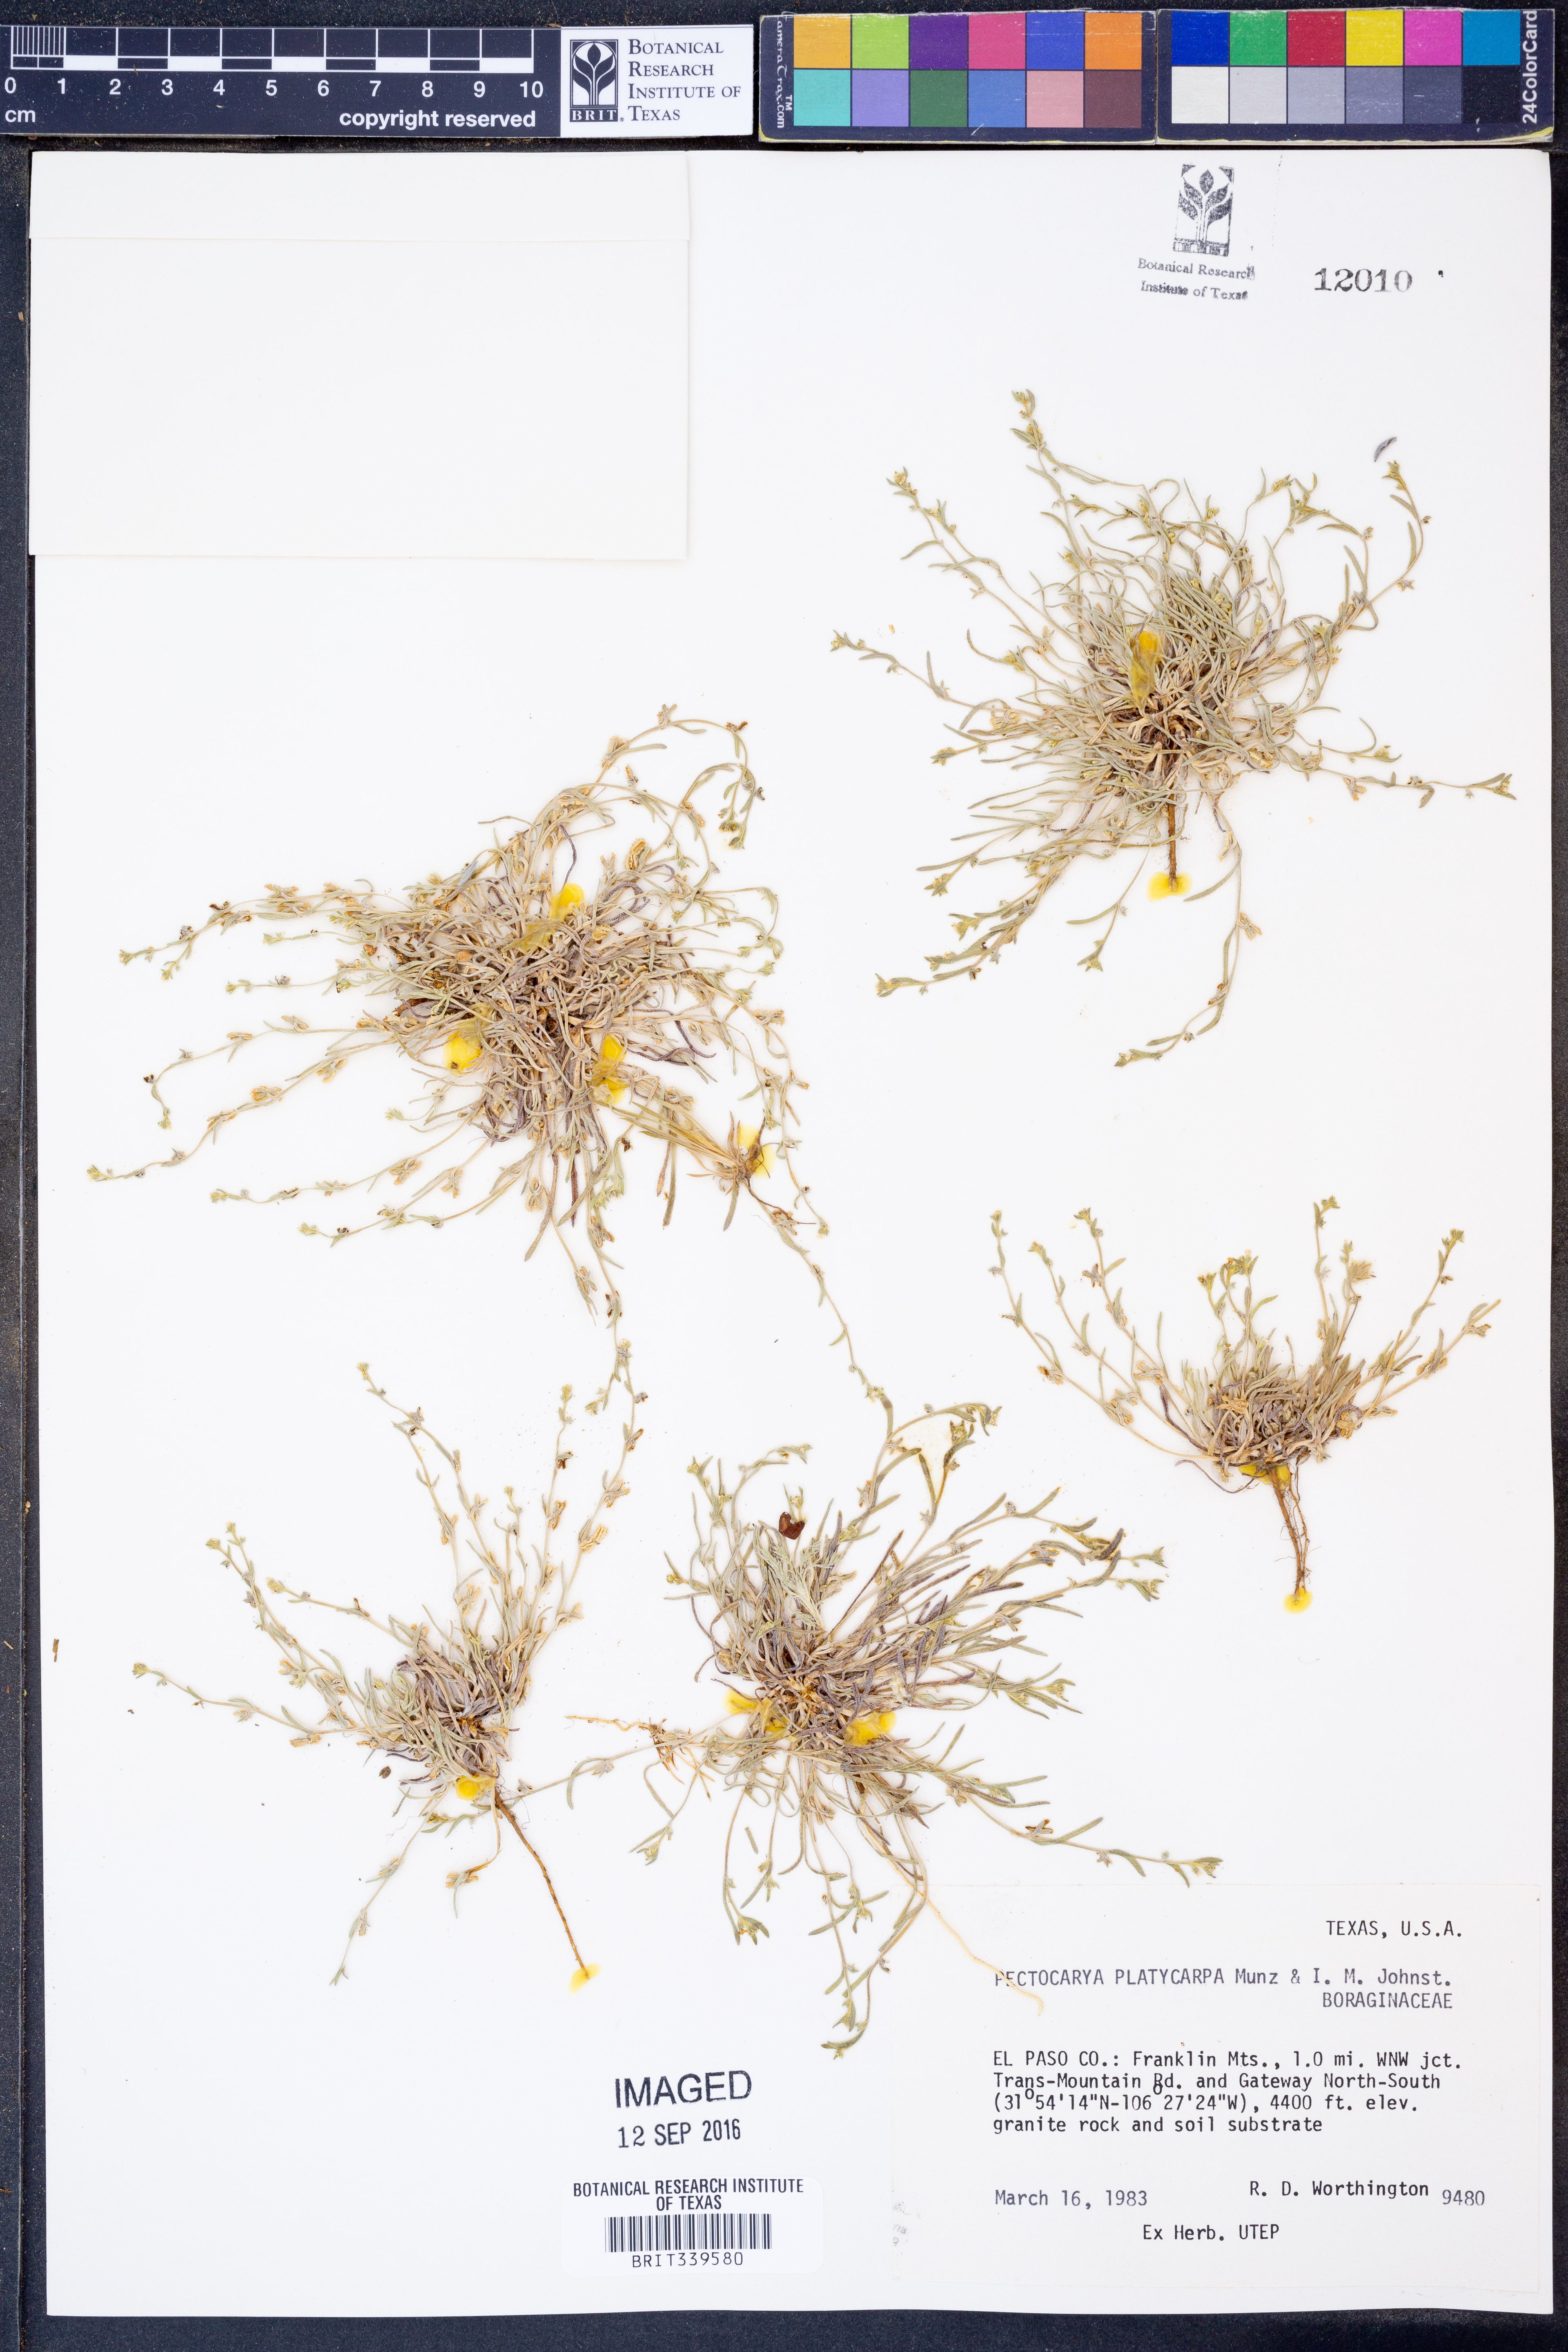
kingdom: Plantae
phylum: Tracheophyta
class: Magnoliopsida
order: Boraginales
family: Boraginaceae
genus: Pectocarya
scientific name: Pectocarya platycarpa
